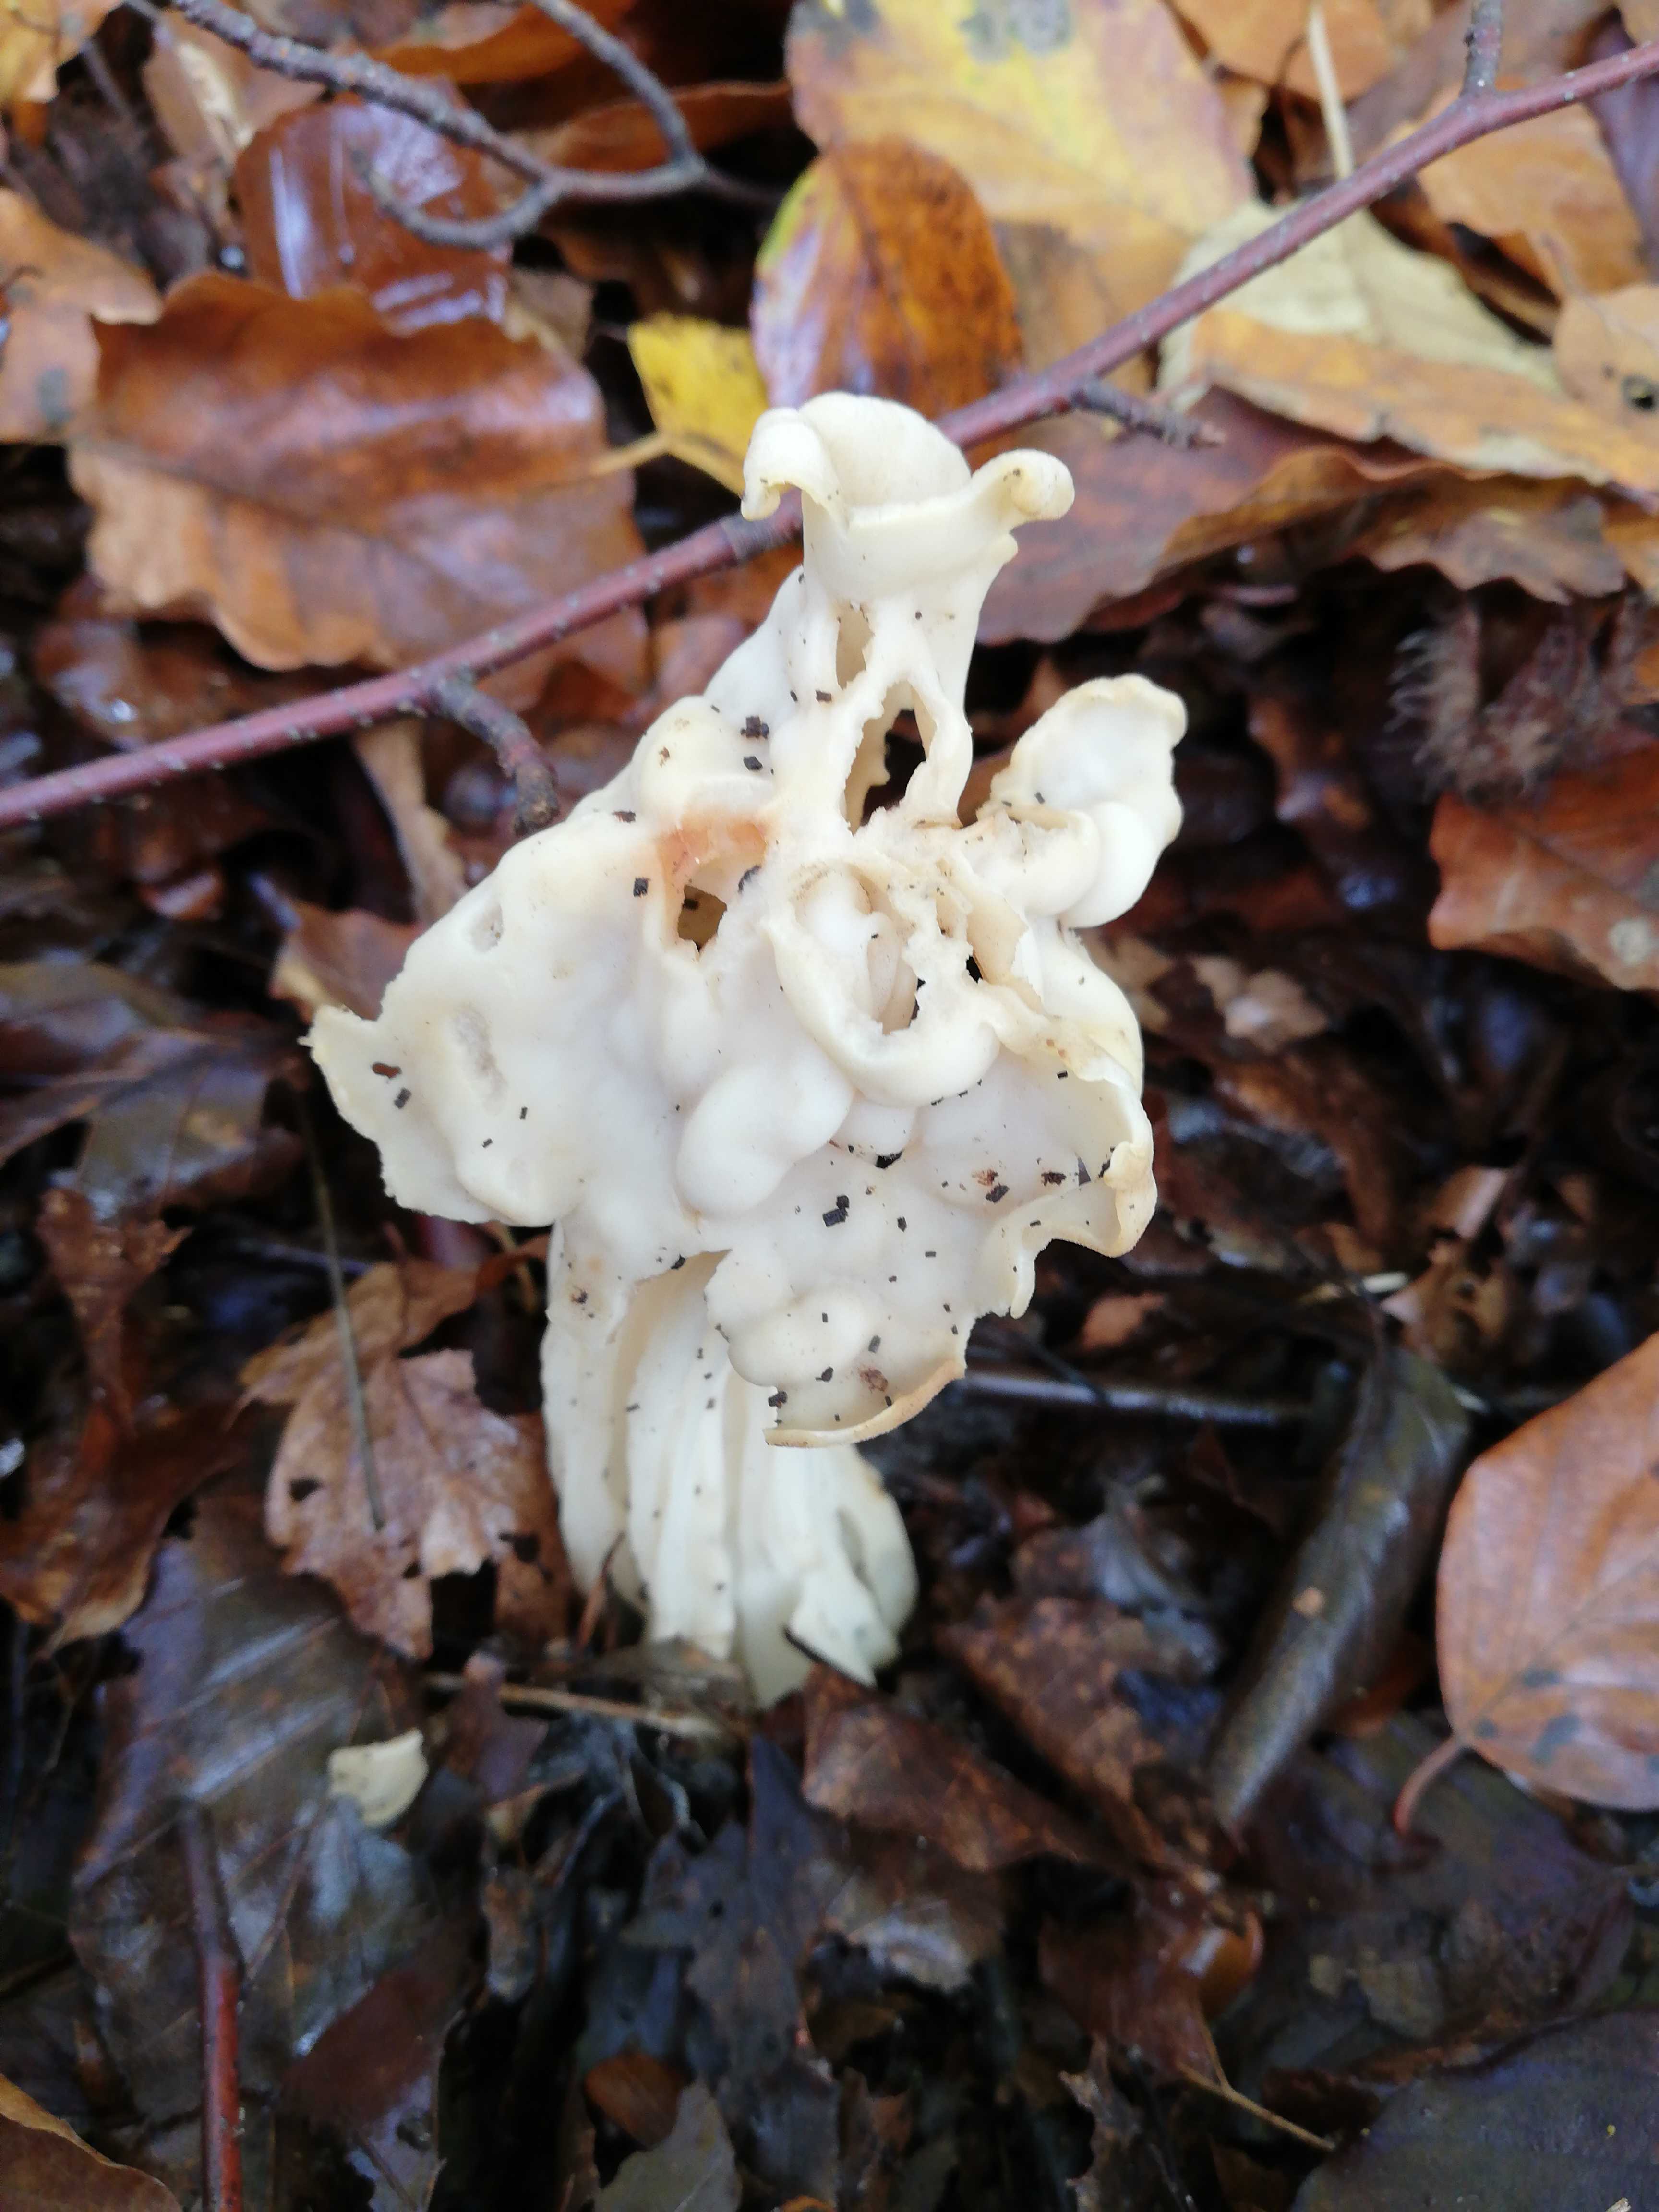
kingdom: Fungi
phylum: Ascomycota
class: Pezizomycetes
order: Pezizales
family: Helvellaceae
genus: Helvella
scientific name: Helvella crispa
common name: kruset foldhat
